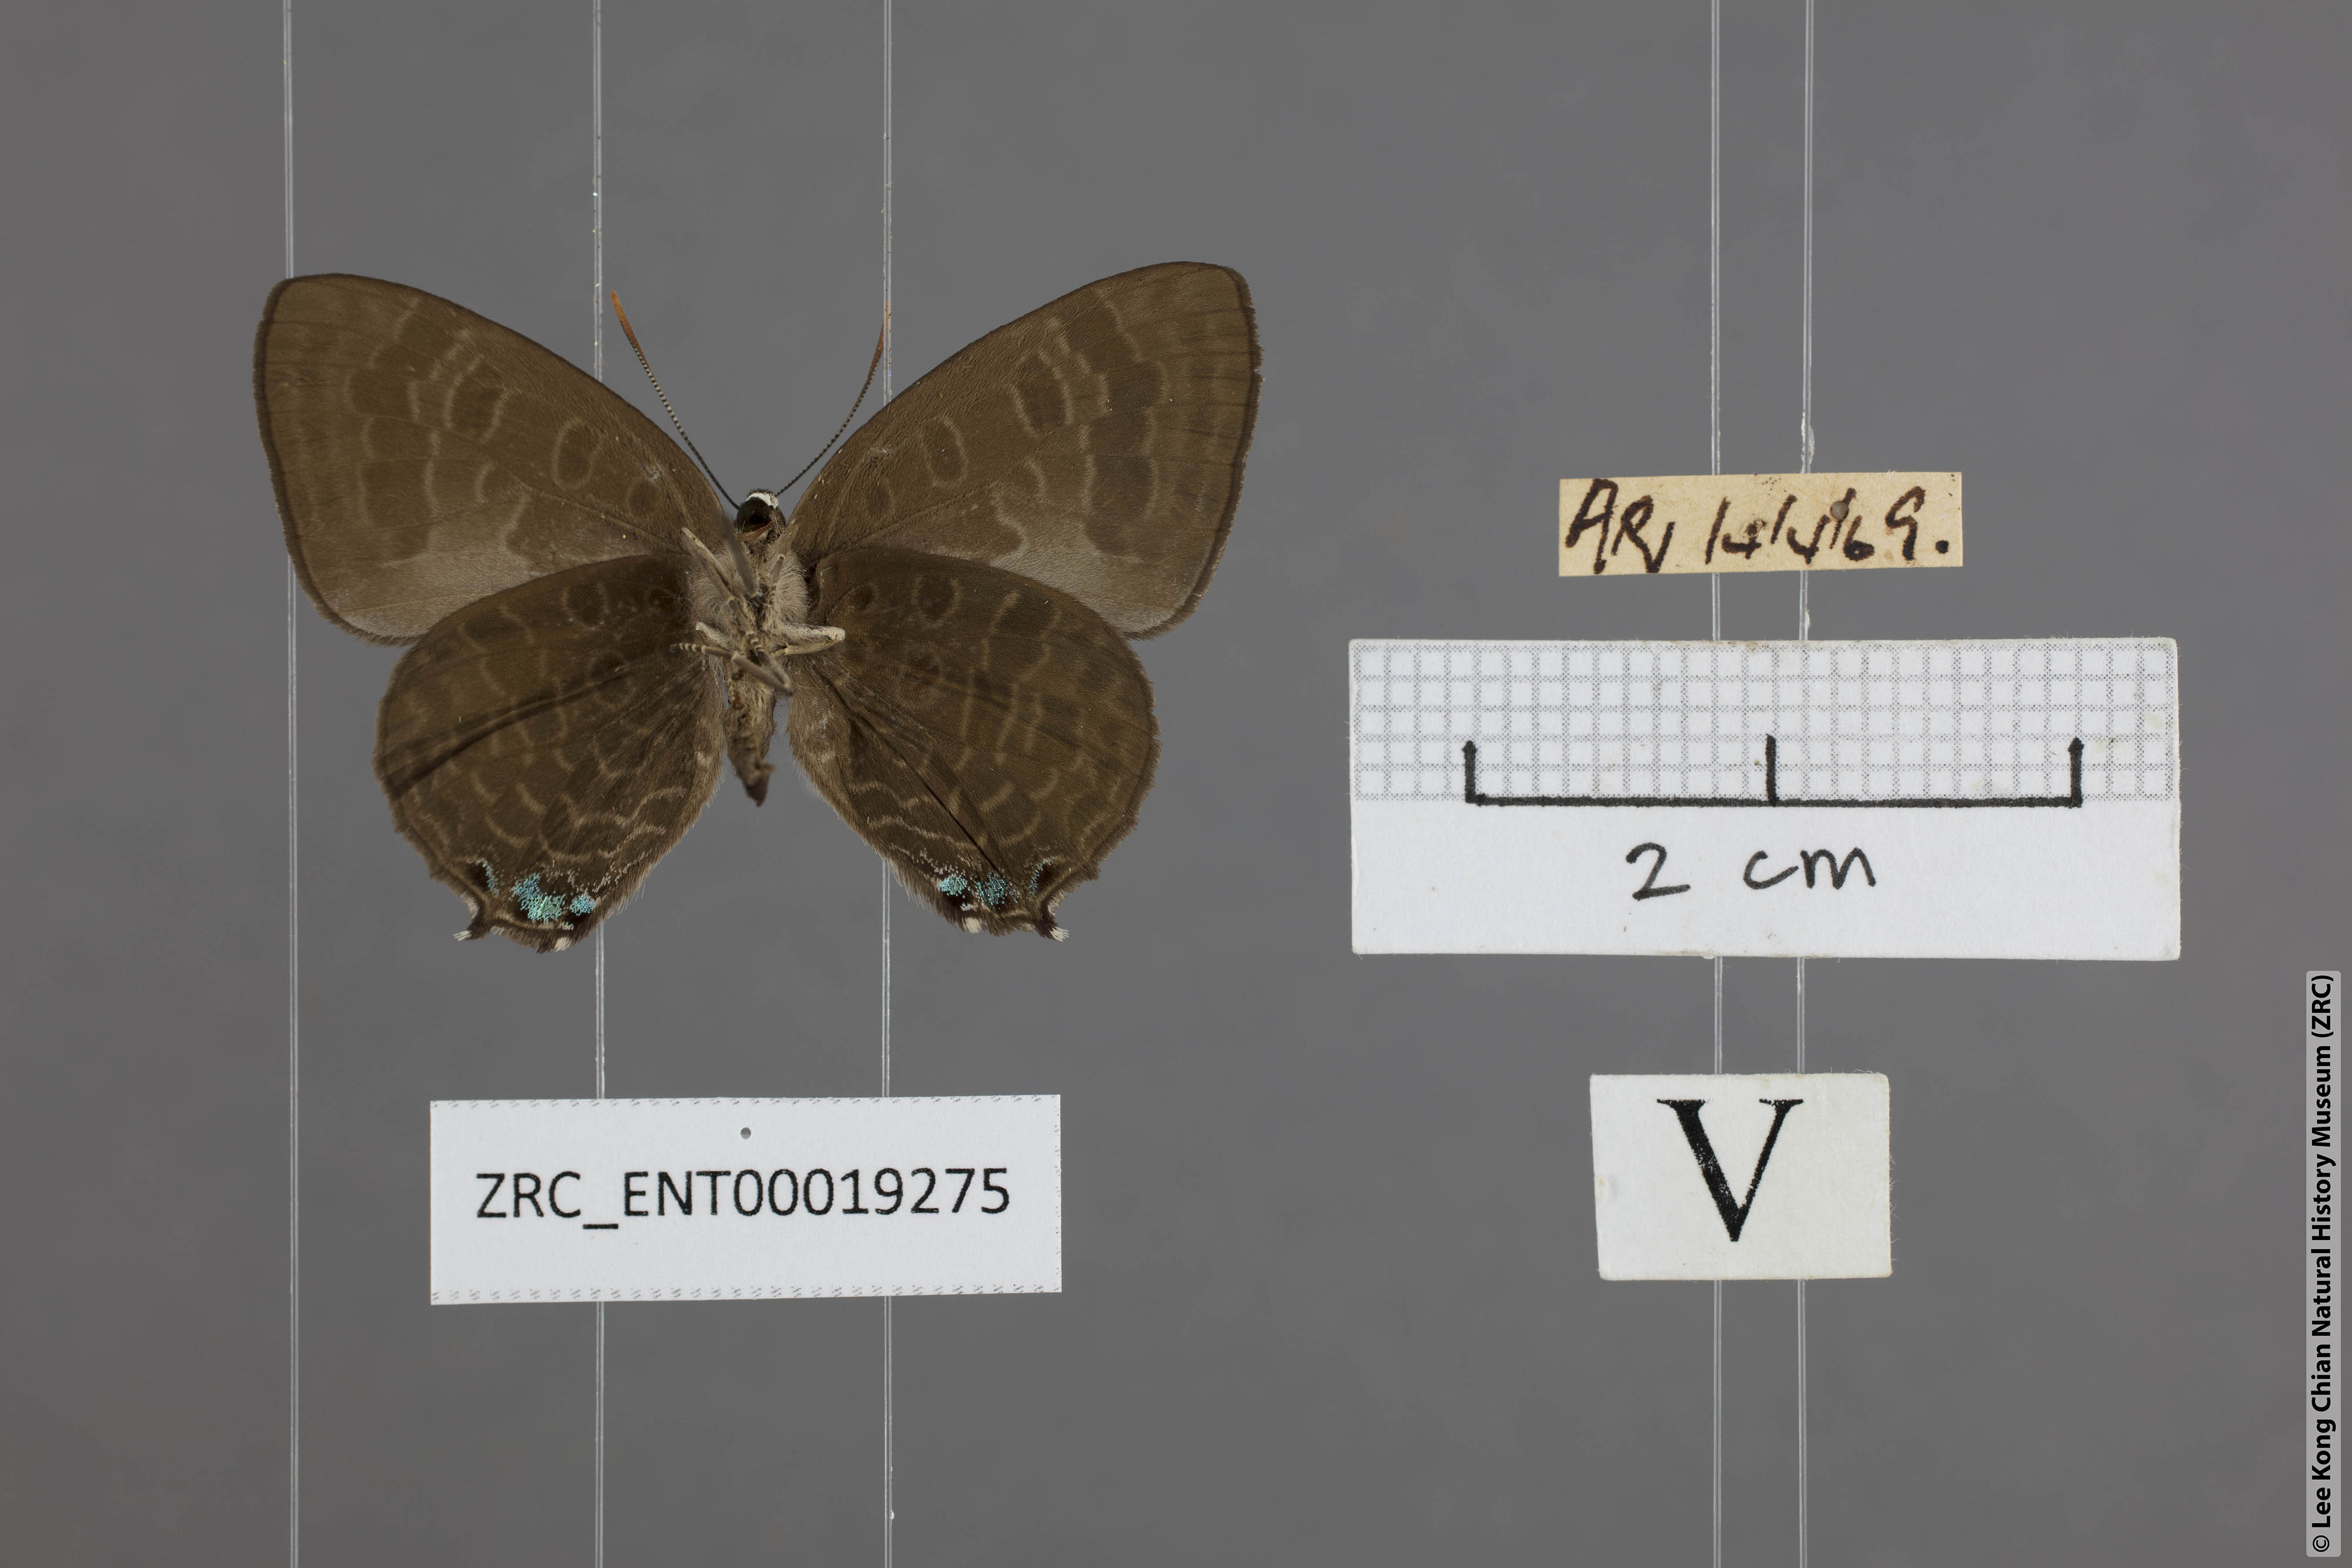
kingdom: Animalia
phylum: Arthropoda
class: Insecta
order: Lepidoptera
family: Lycaenidae
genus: Arhopala
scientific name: Arhopala aurea
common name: Long-celled oakblue
